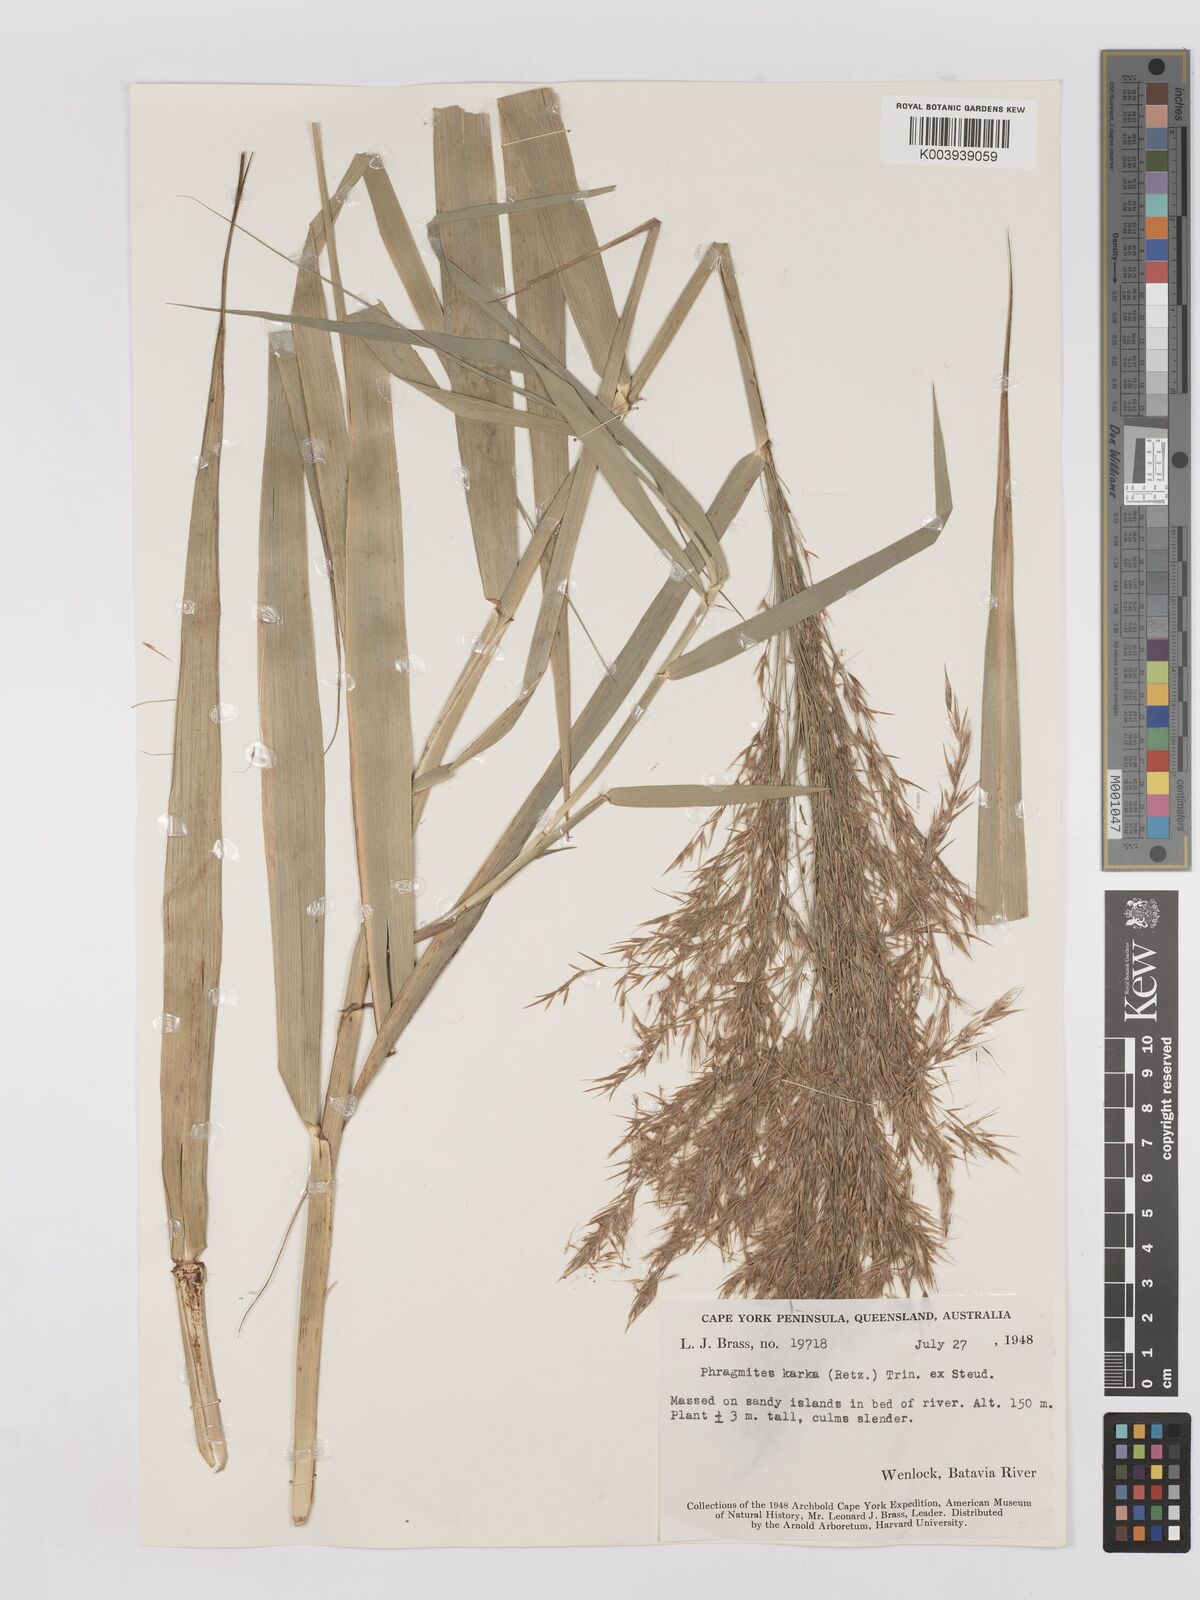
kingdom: Plantae
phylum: Tracheophyta
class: Liliopsida
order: Poales
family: Poaceae
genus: Phragmites
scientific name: Phragmites karka
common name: Tropical reed
